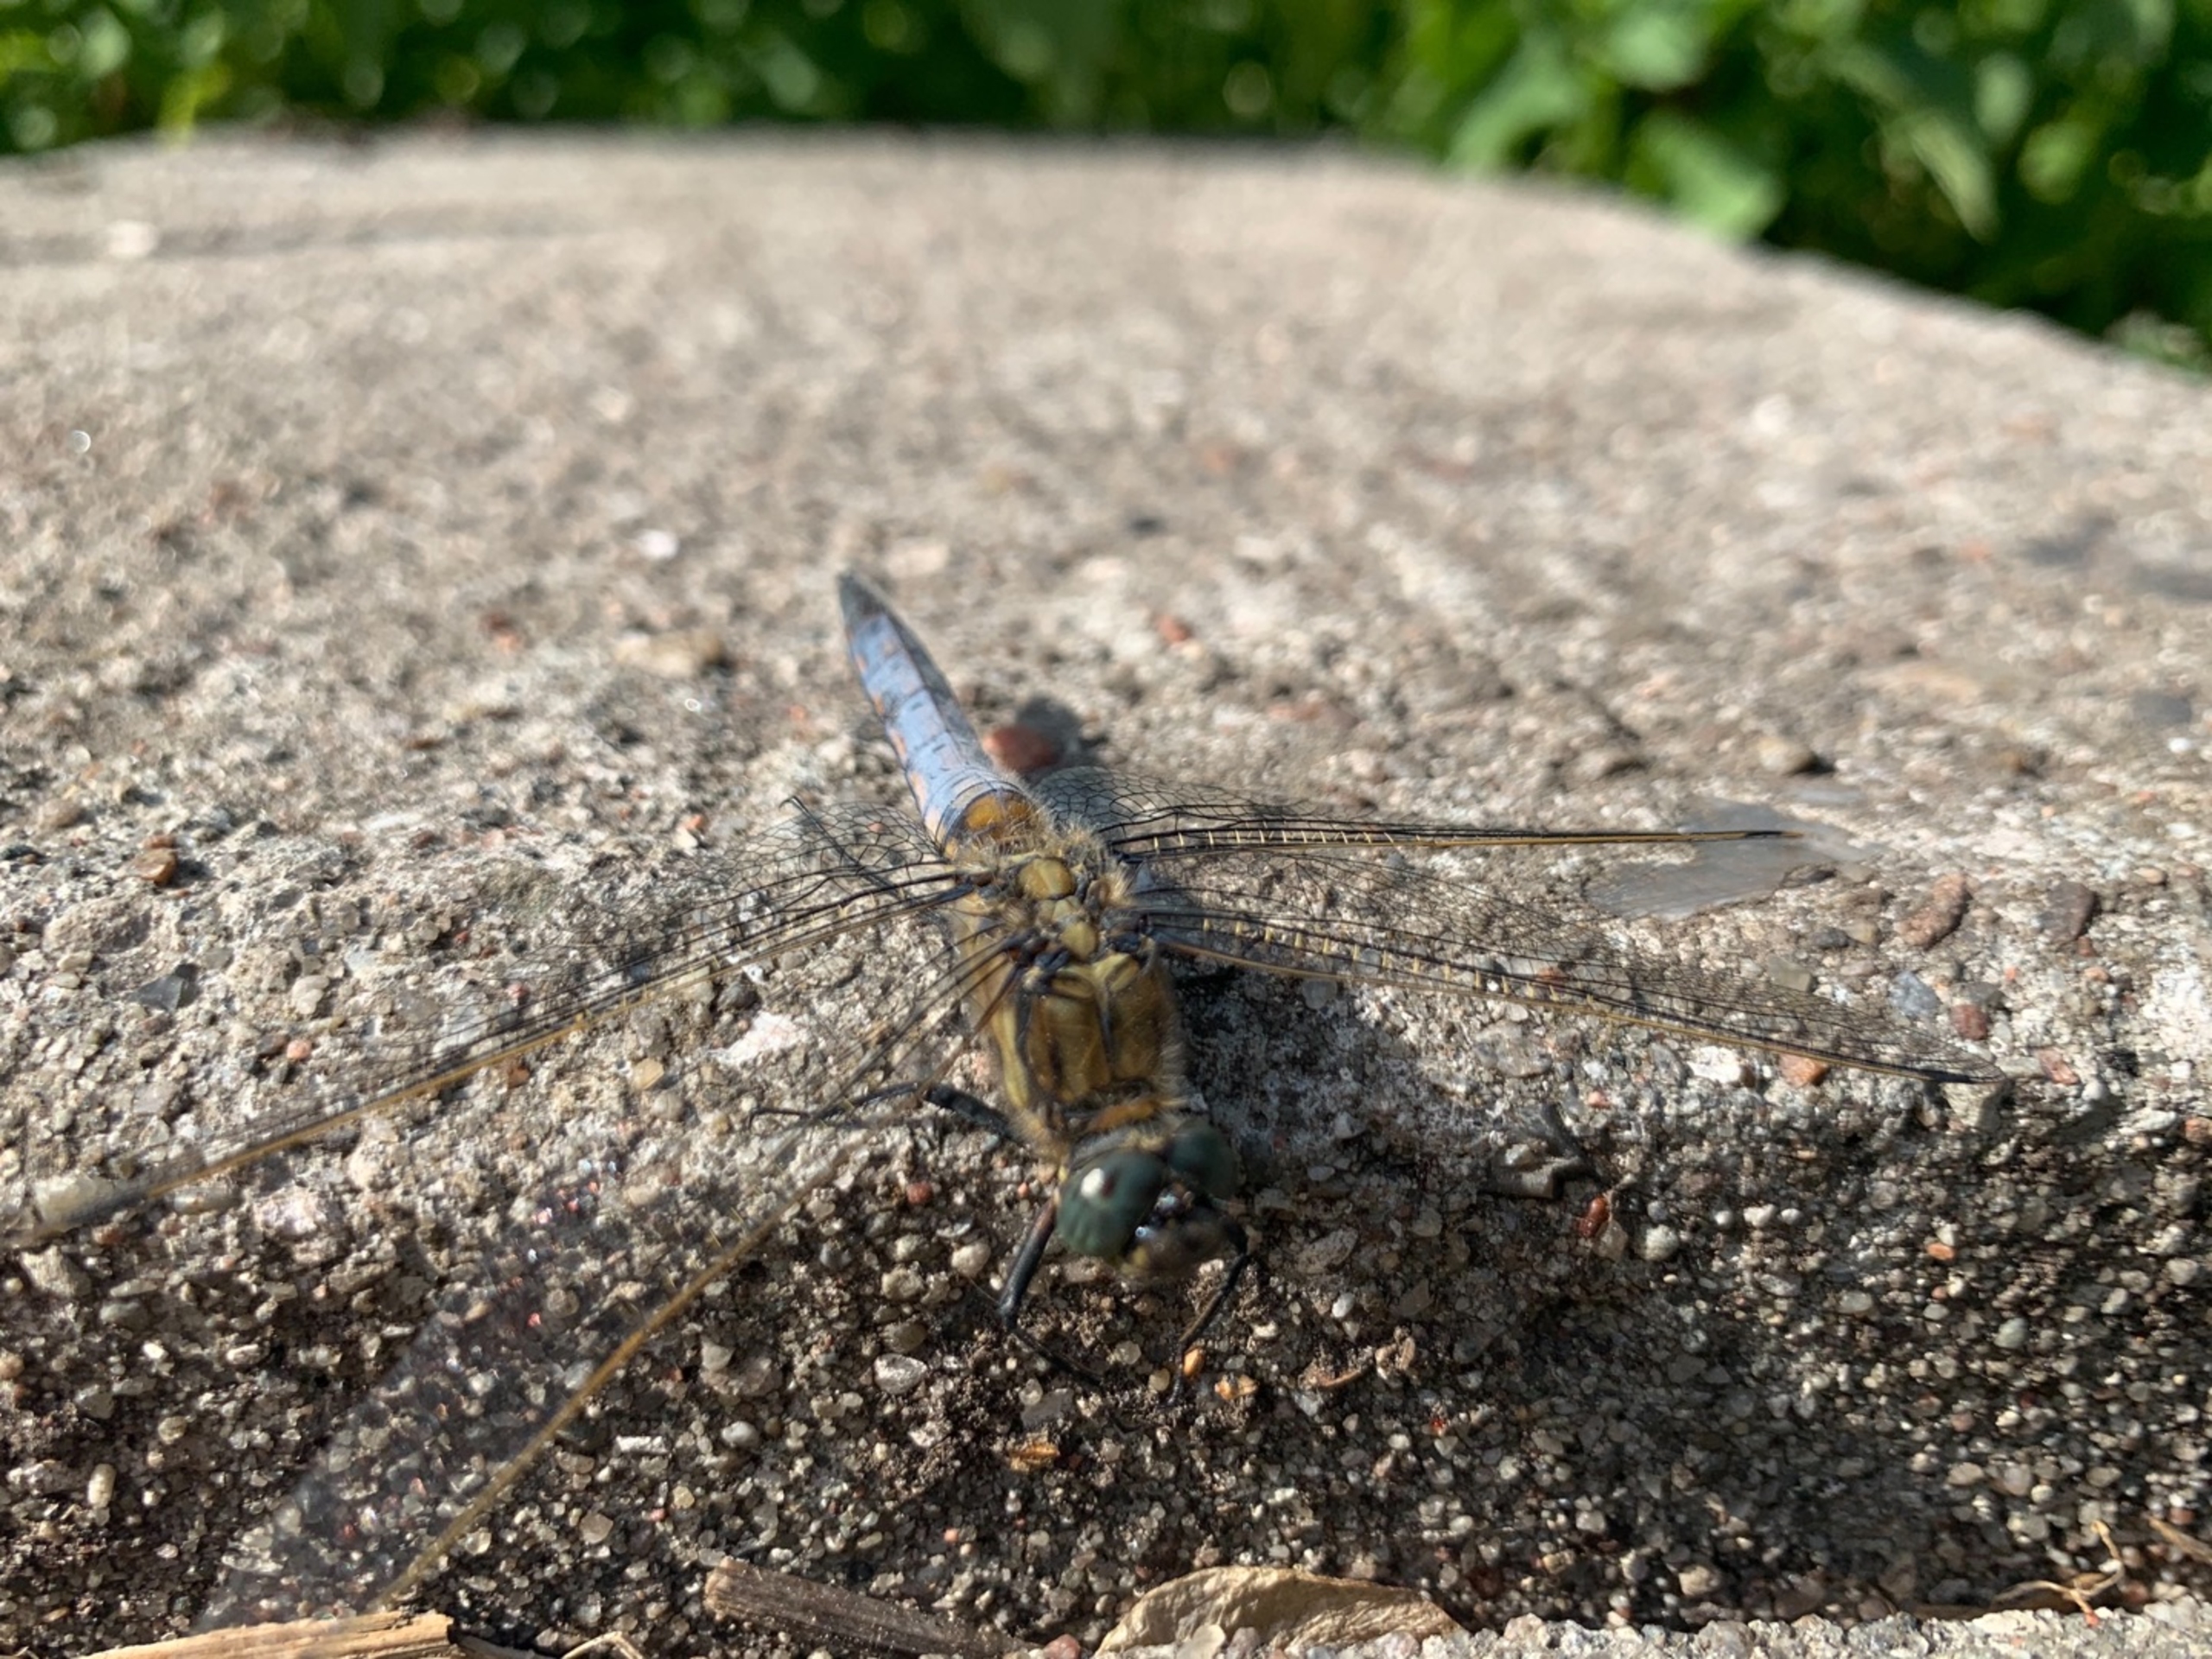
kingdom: Animalia
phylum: Arthropoda
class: Insecta
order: Odonata
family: Libellulidae
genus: Orthetrum
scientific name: Orthetrum cancellatum
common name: Stor blåpil
